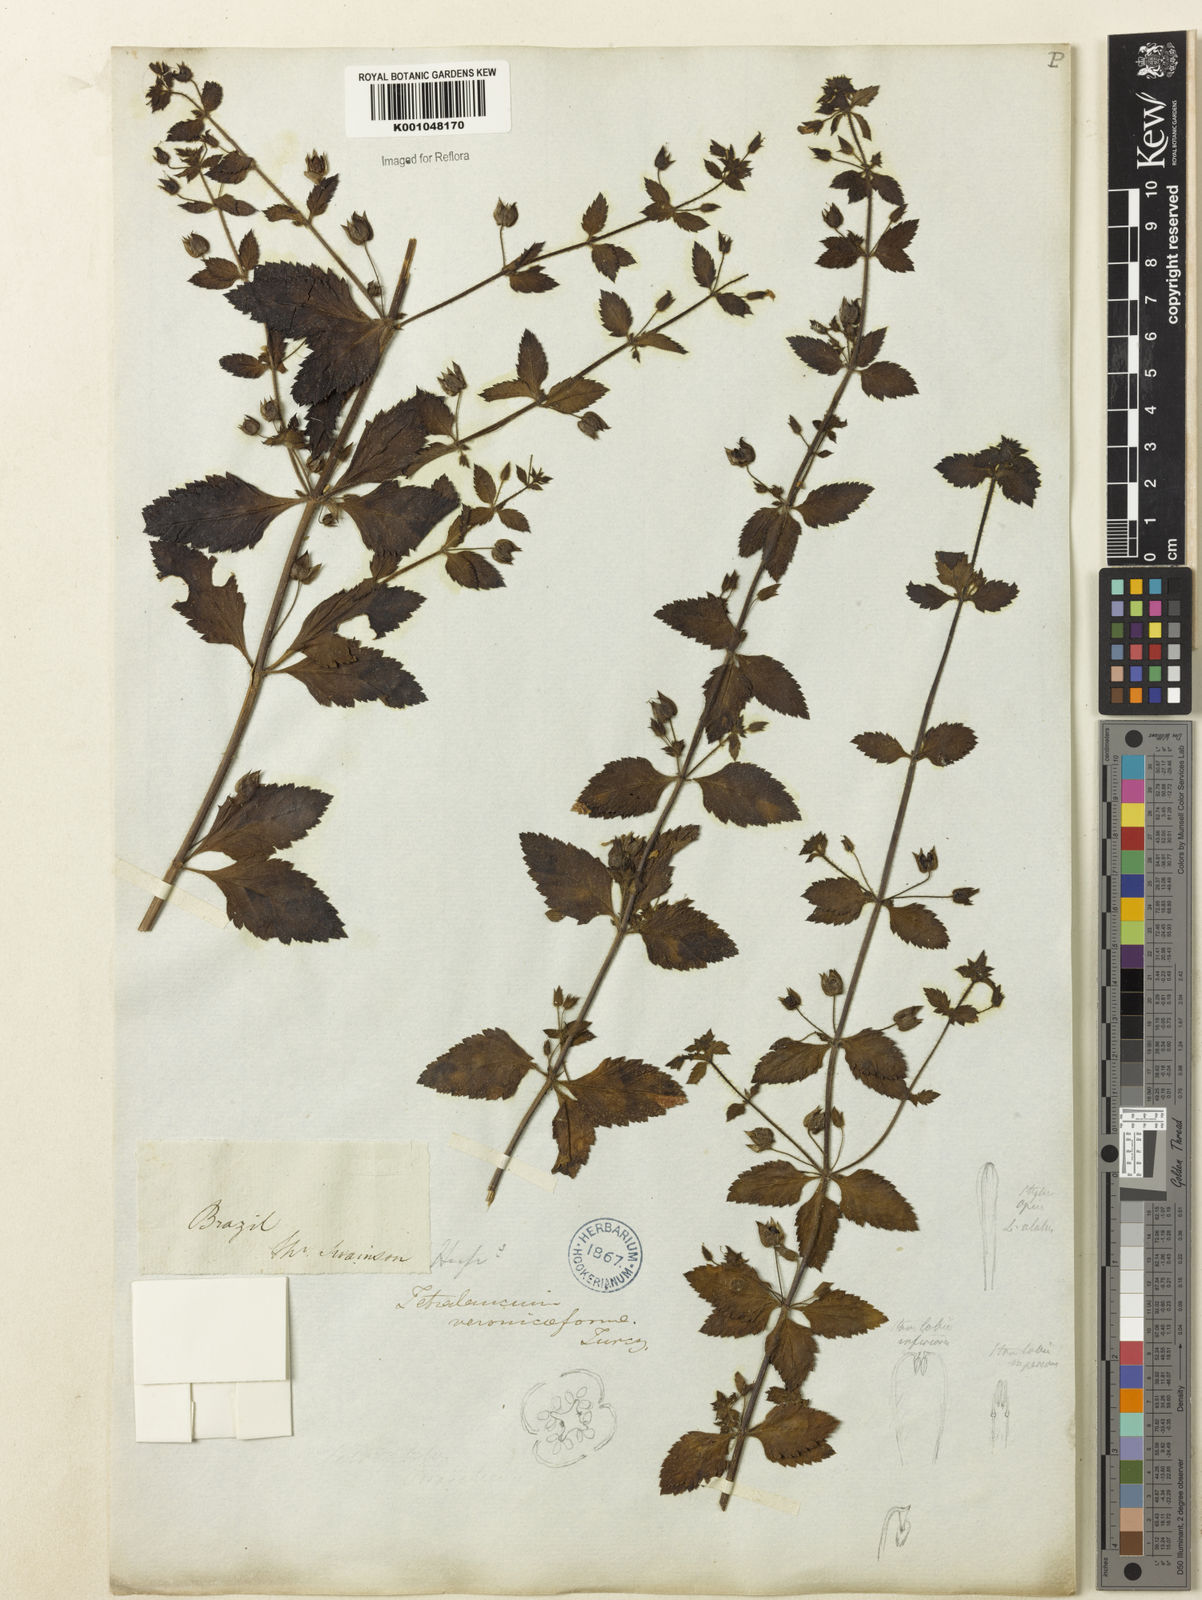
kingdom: Plantae
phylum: Tracheophyta
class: Magnoliopsida
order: Lamiales
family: Plantaginaceae
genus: Tetraulacium
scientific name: Tetraulacium veroniciforme
